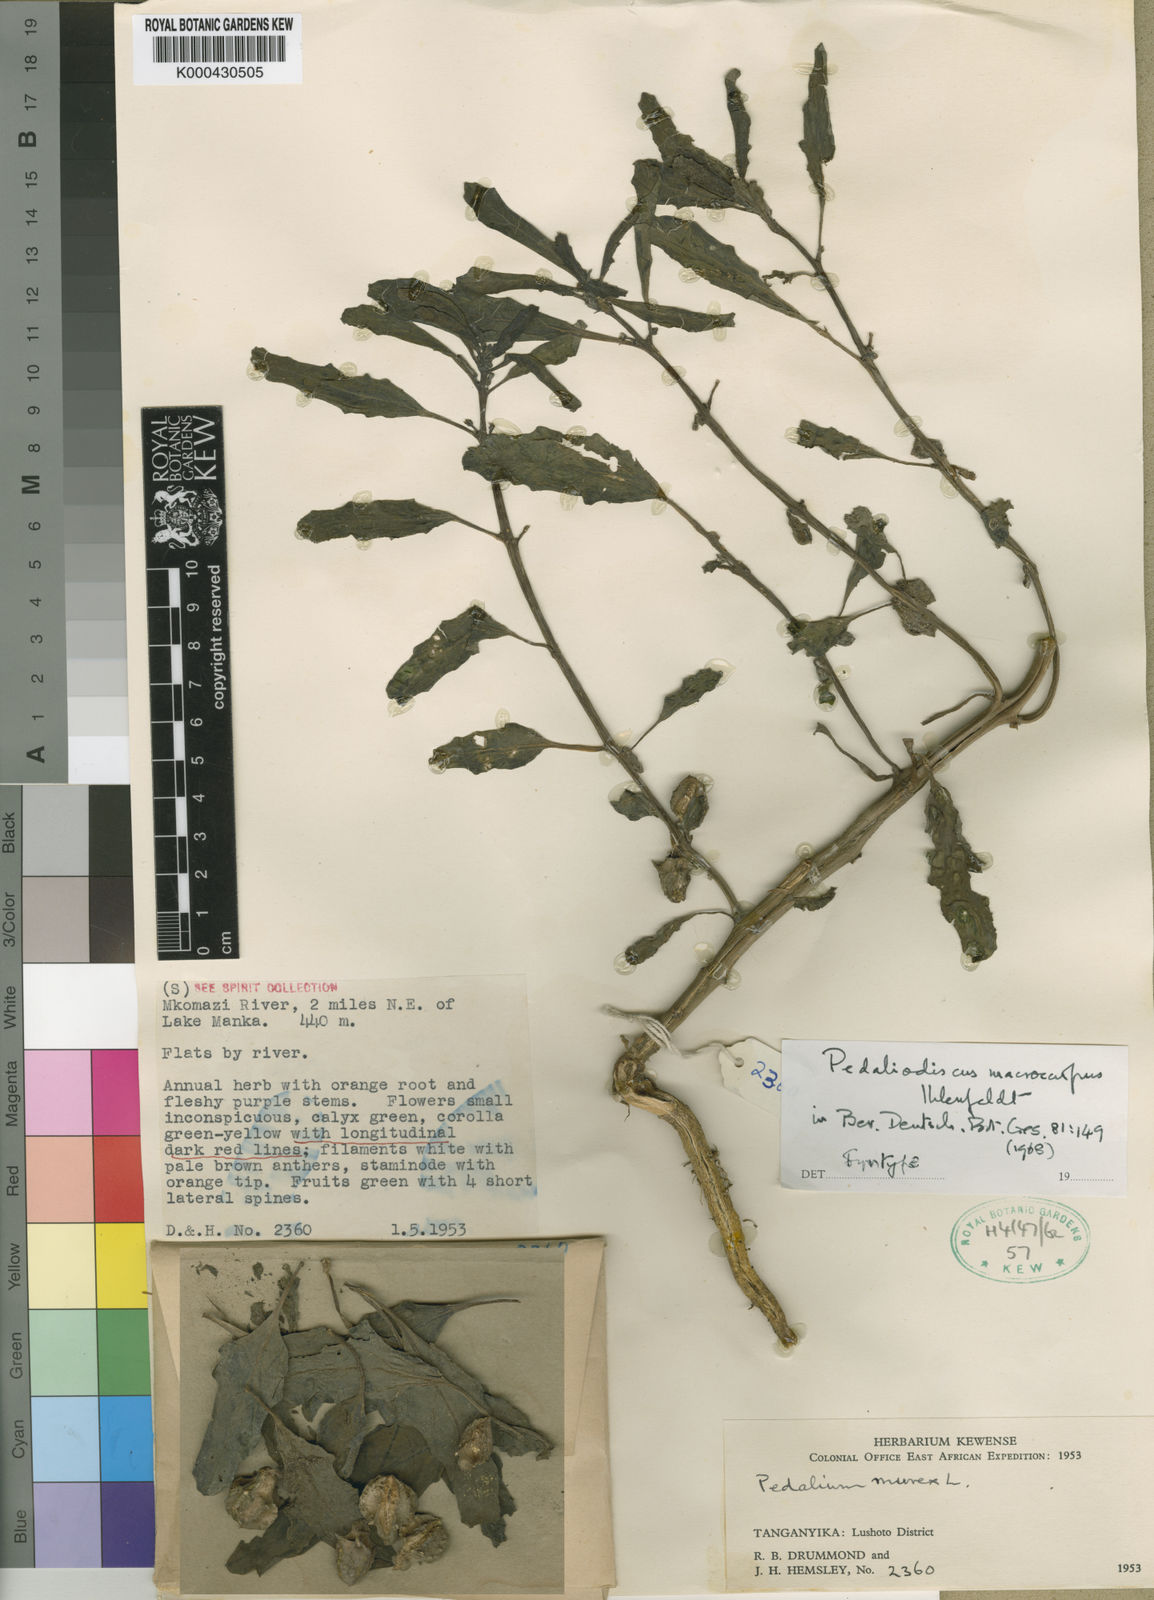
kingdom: Plantae
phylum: Tracheophyta
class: Magnoliopsida
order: Lamiales
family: Pedaliaceae
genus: Pedaliodiscus
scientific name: Pedaliodiscus macrocarpus
